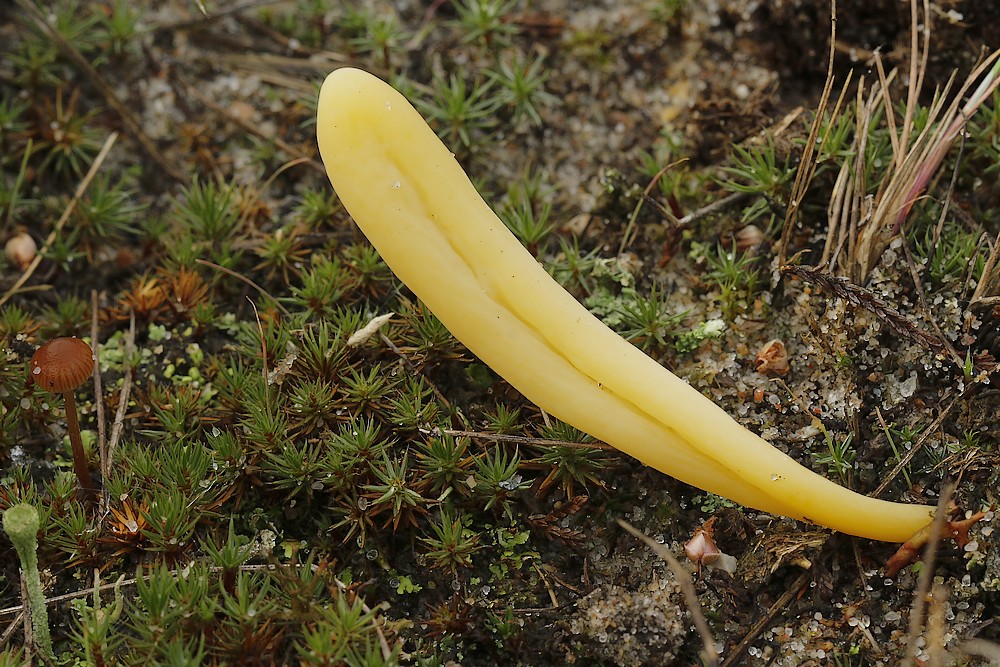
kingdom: Fungi
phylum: Basidiomycota
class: Agaricomycetes
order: Agaricales
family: Clavariaceae
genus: Clavaria
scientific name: Clavaria argillacea
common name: lerfarvet køllesvamp
